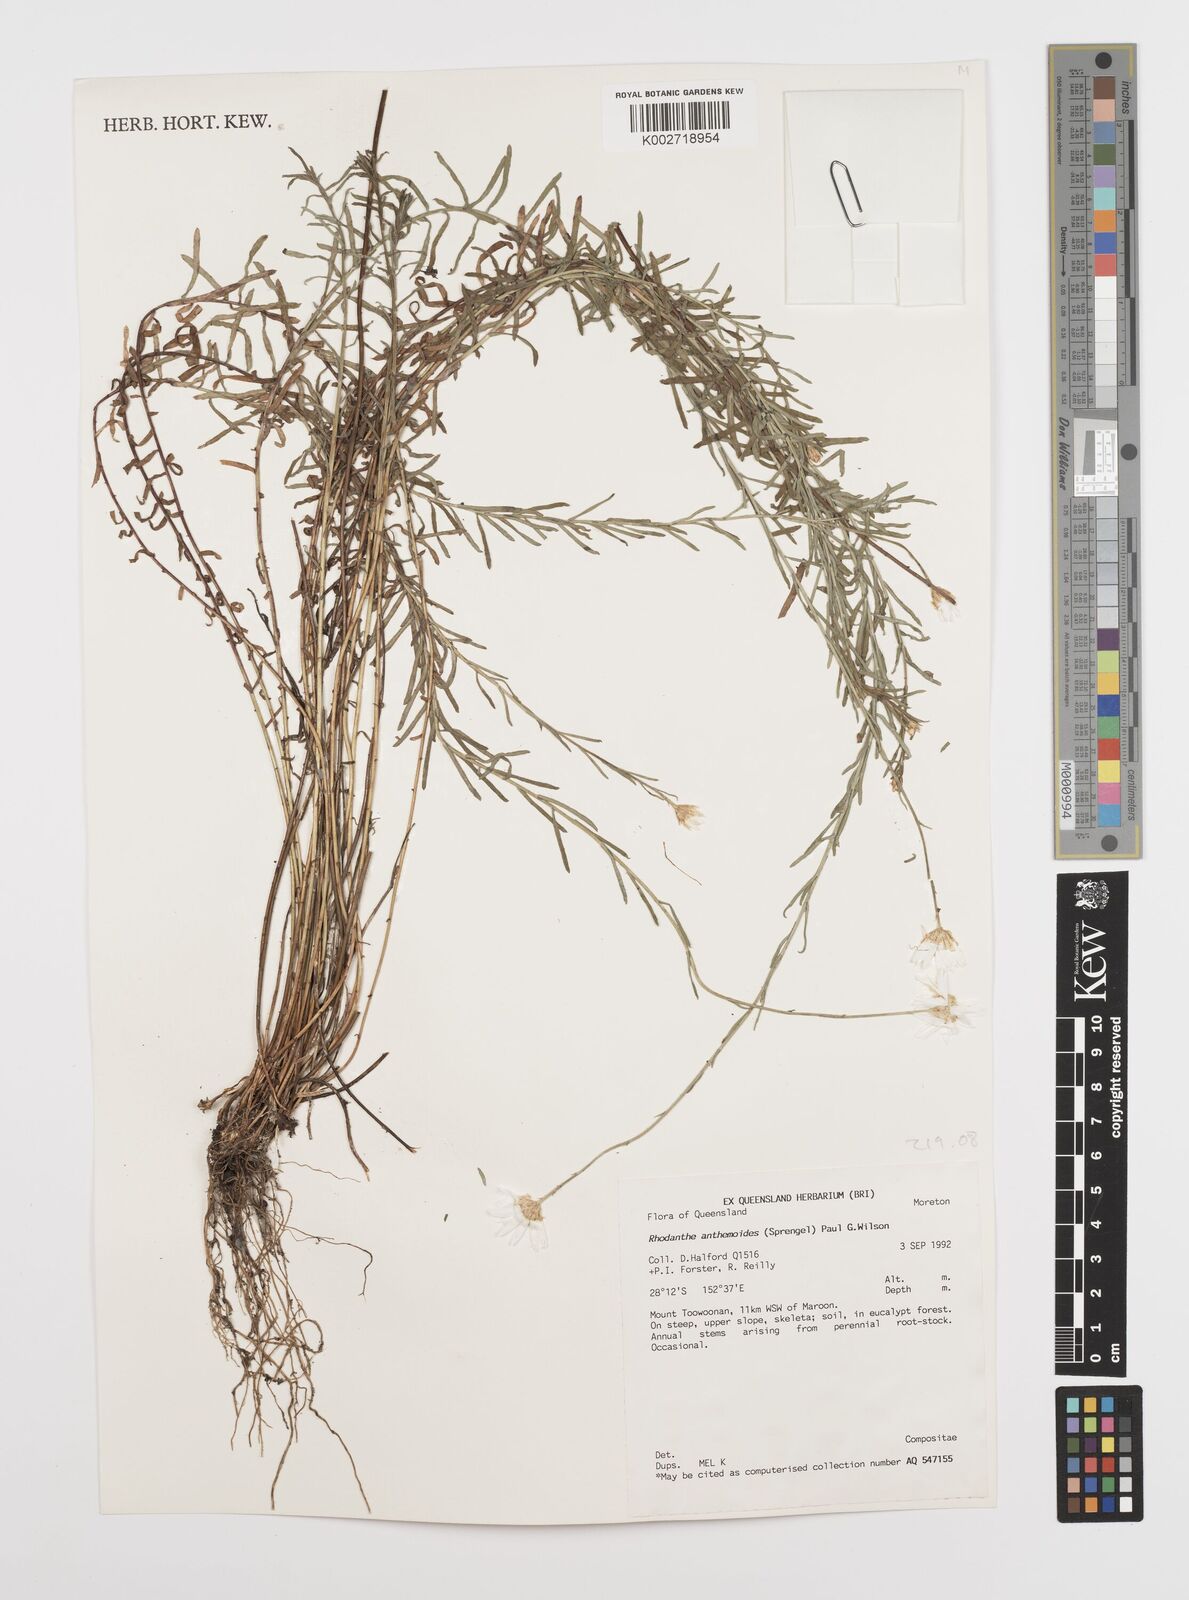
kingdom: Plantae
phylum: Tracheophyta
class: Magnoliopsida
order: Asterales
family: Asteraceae
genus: Rhodanthe
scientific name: Rhodanthe anthemoides
